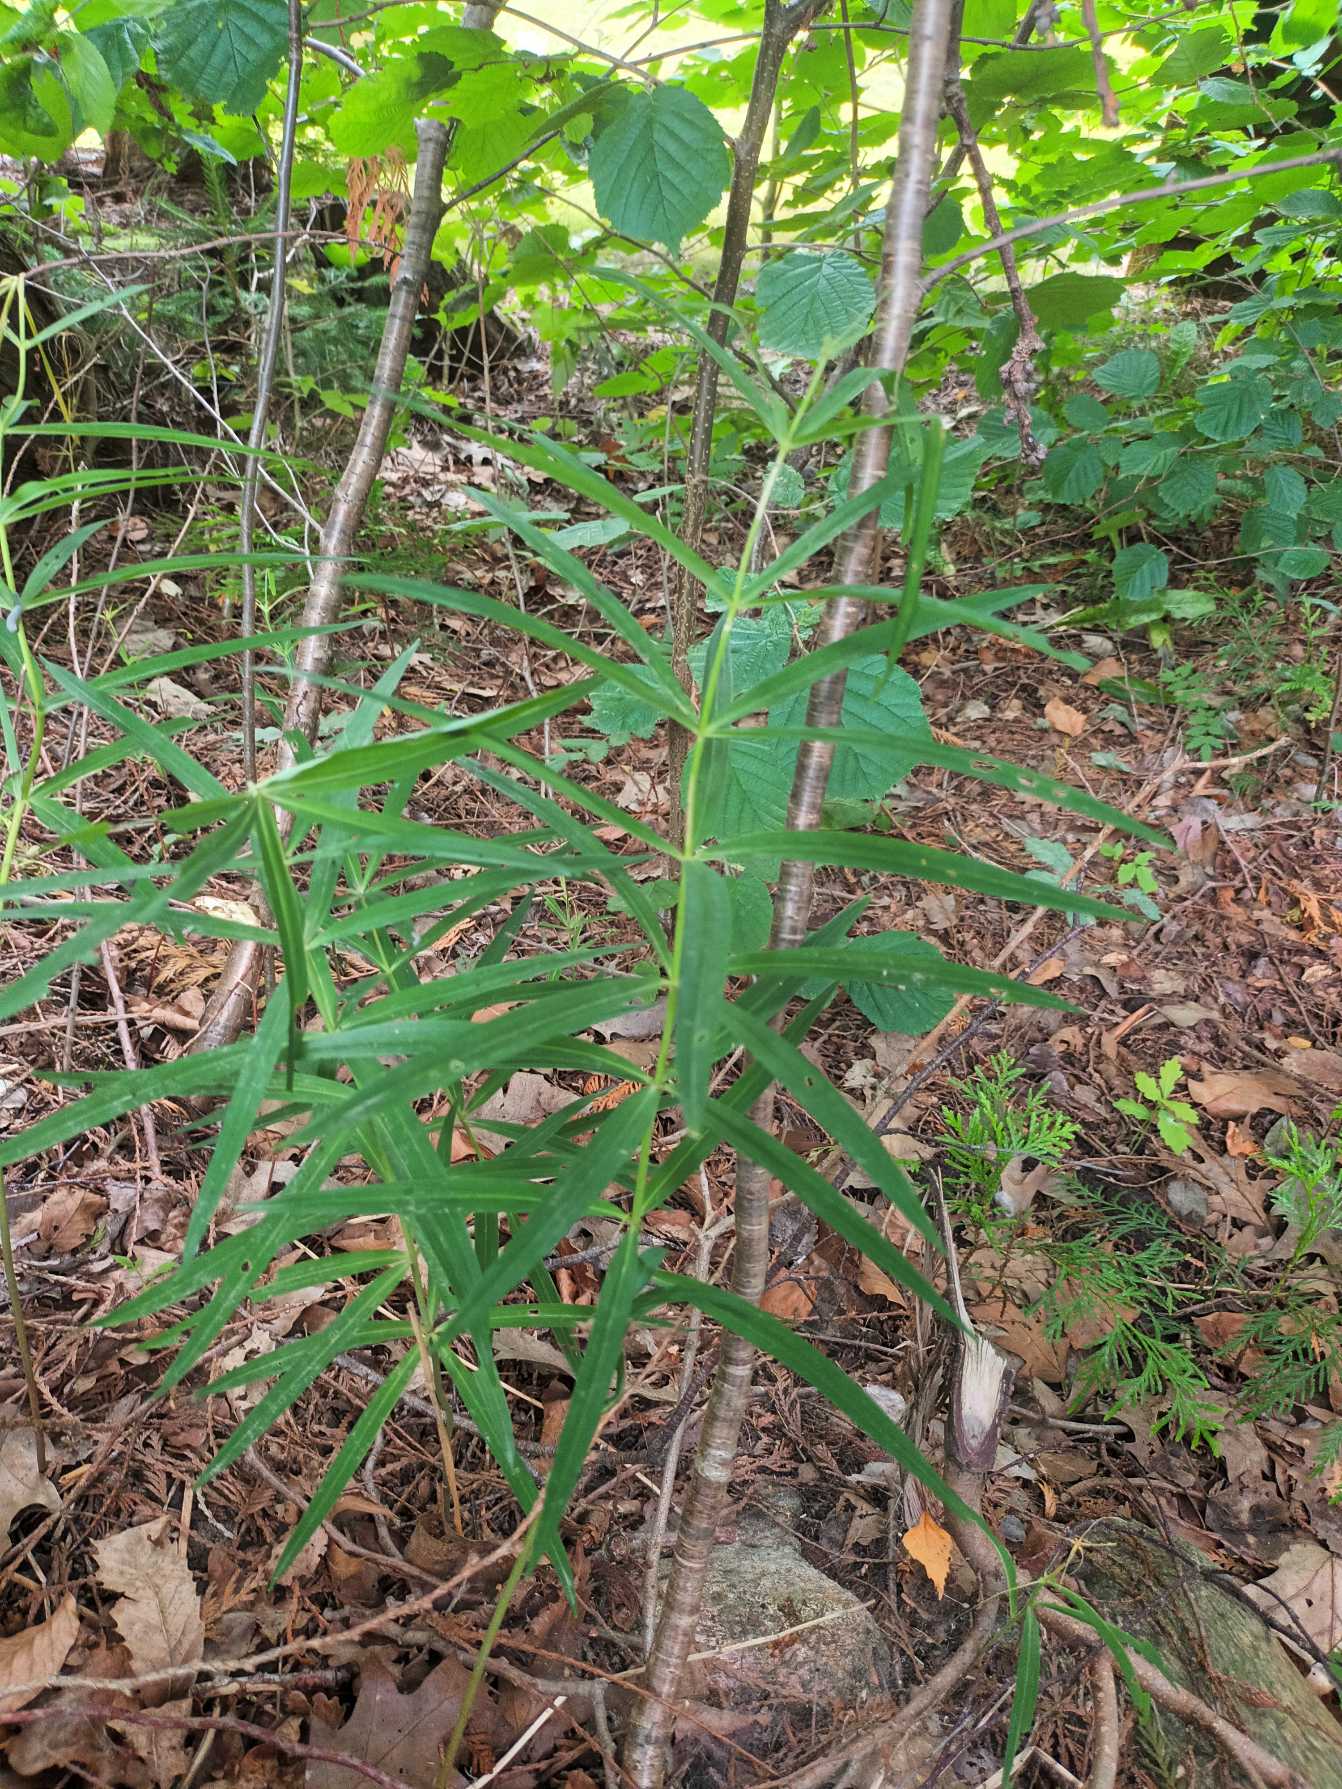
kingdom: Plantae
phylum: Tracheophyta
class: Liliopsida
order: Asparagales
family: Asparagaceae
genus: Polygonatum
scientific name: Polygonatum verticillatum
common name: Krans-konval
